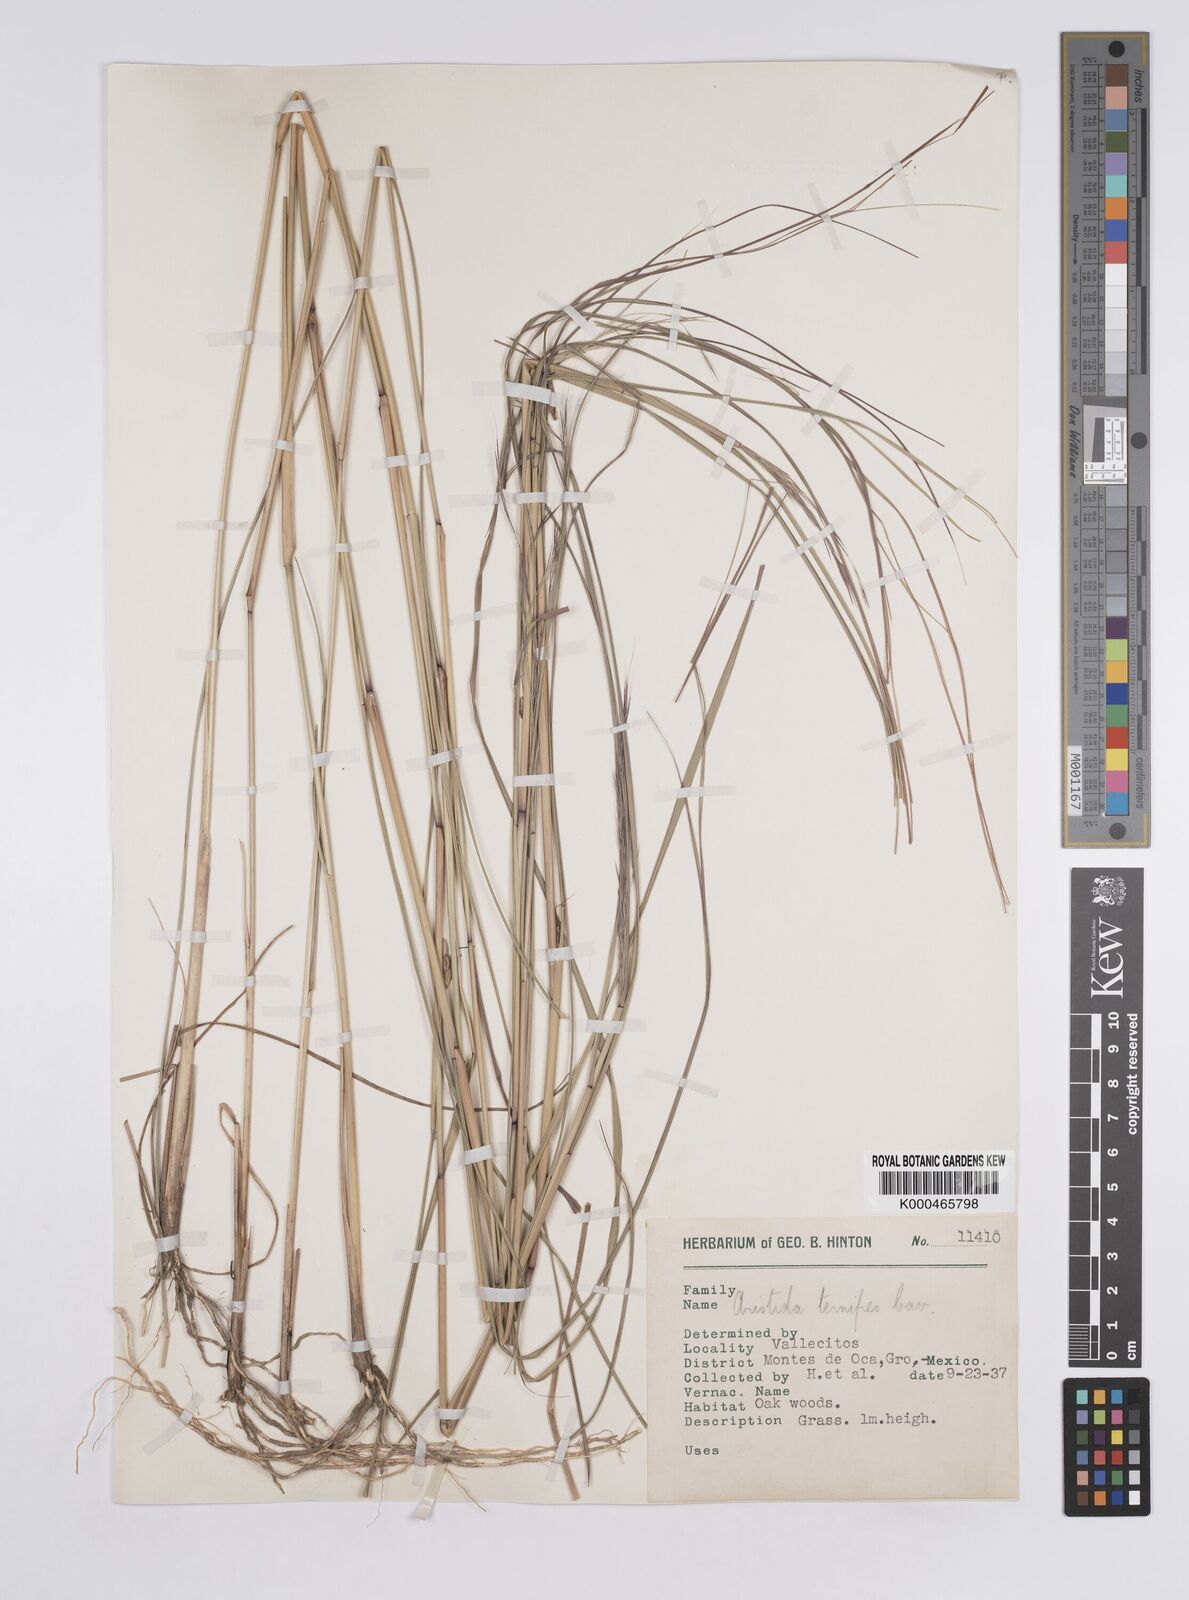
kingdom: Plantae
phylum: Tracheophyta
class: Liliopsida
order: Poales
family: Poaceae
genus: Aristida
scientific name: Aristida ternipes
